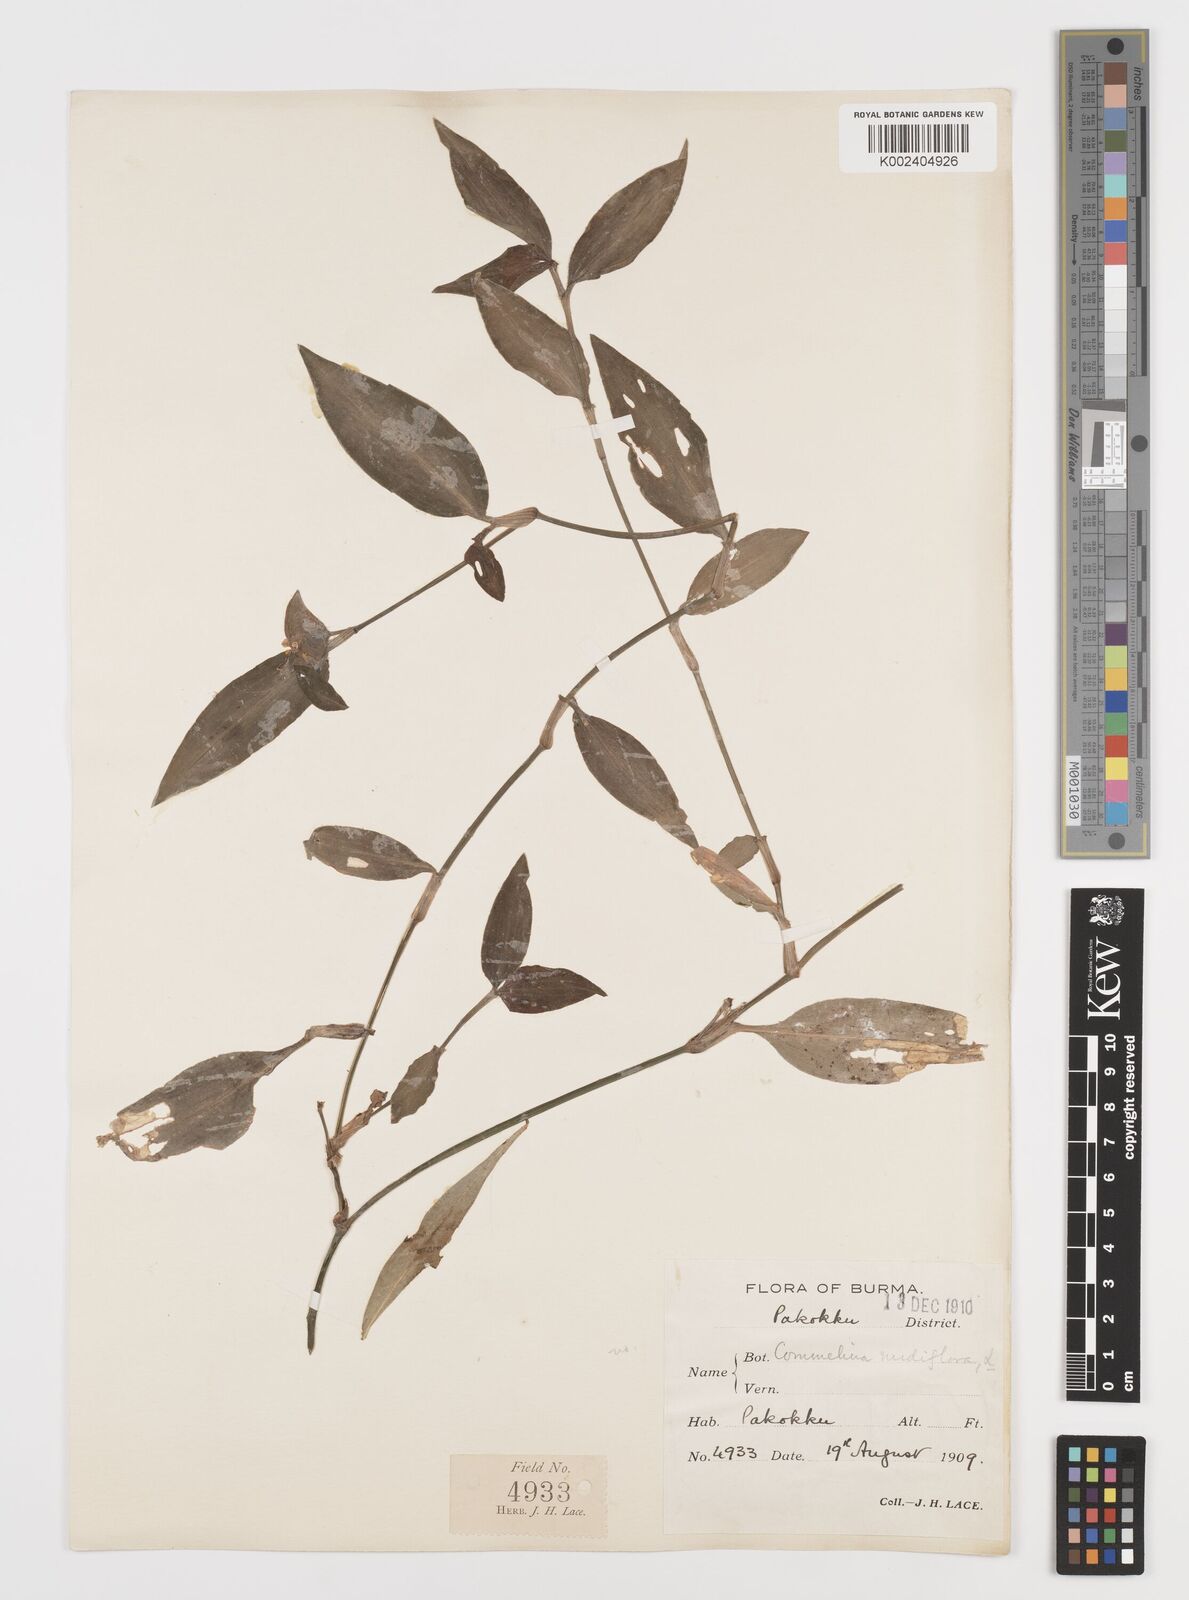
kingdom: Plantae
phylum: Tracheophyta
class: Liliopsida
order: Commelinales
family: Commelinaceae
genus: Murdannia
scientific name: Murdannia nudiflora
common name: Nakedstem dewflower
